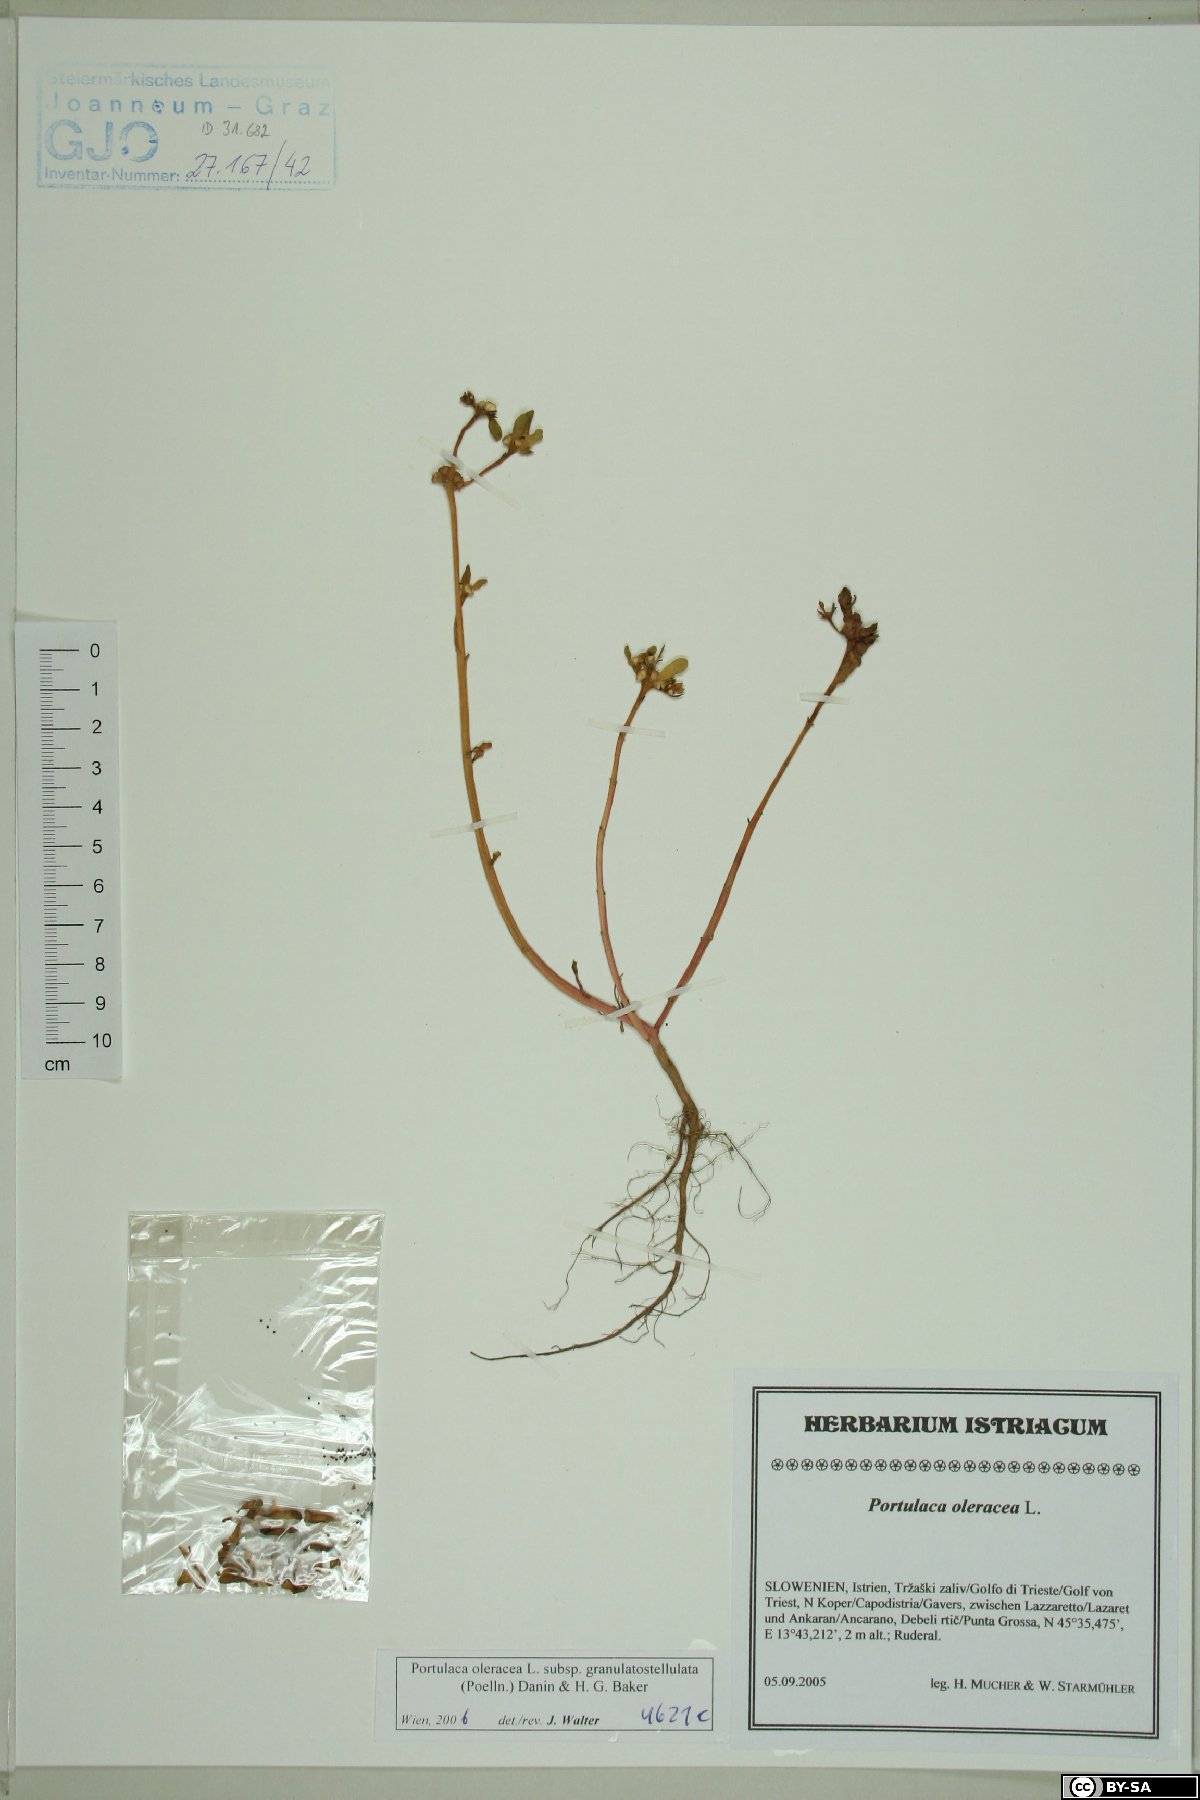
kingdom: Plantae
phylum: Tracheophyta
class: Magnoliopsida
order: Caryophyllales
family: Portulacaceae
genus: Portulaca
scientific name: Portulaca granulatostellulata
